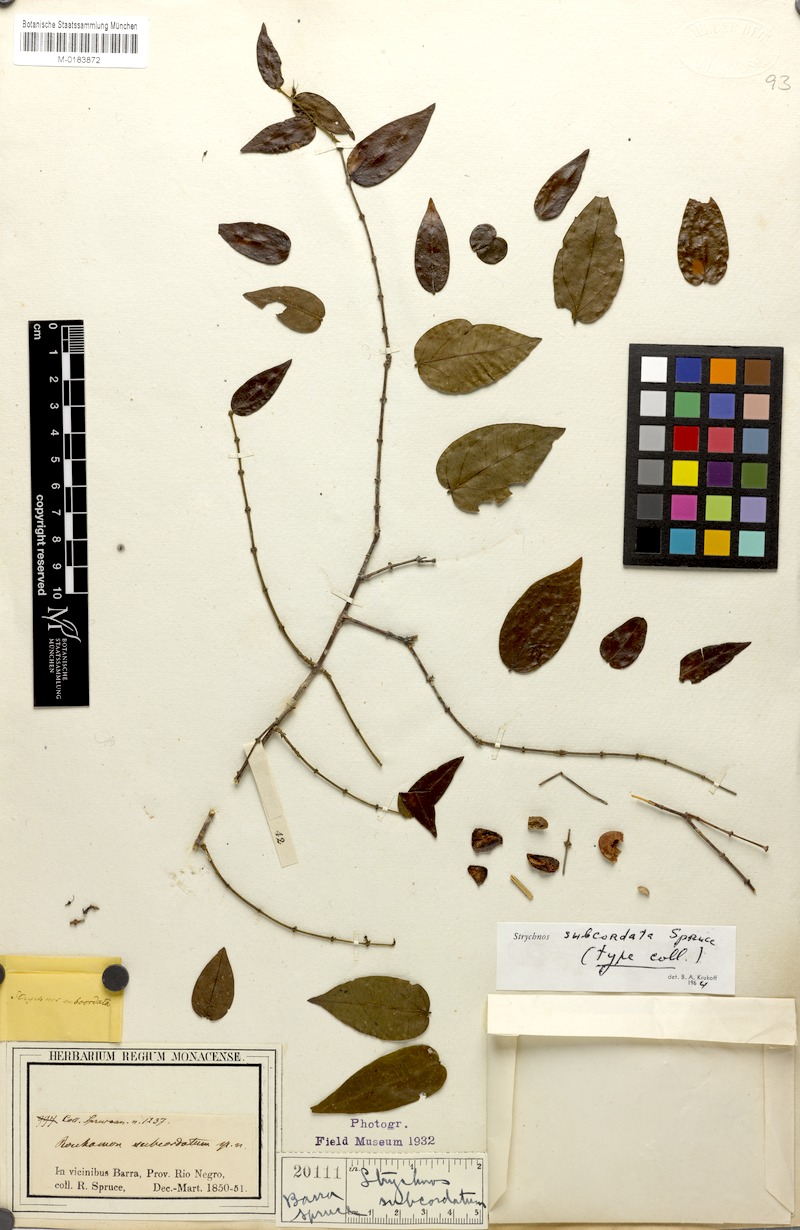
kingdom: Plantae
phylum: Tracheophyta
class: Magnoliopsida
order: Gentianales
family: Loganiaceae
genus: Strychnos
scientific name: Strychnos subcordata
